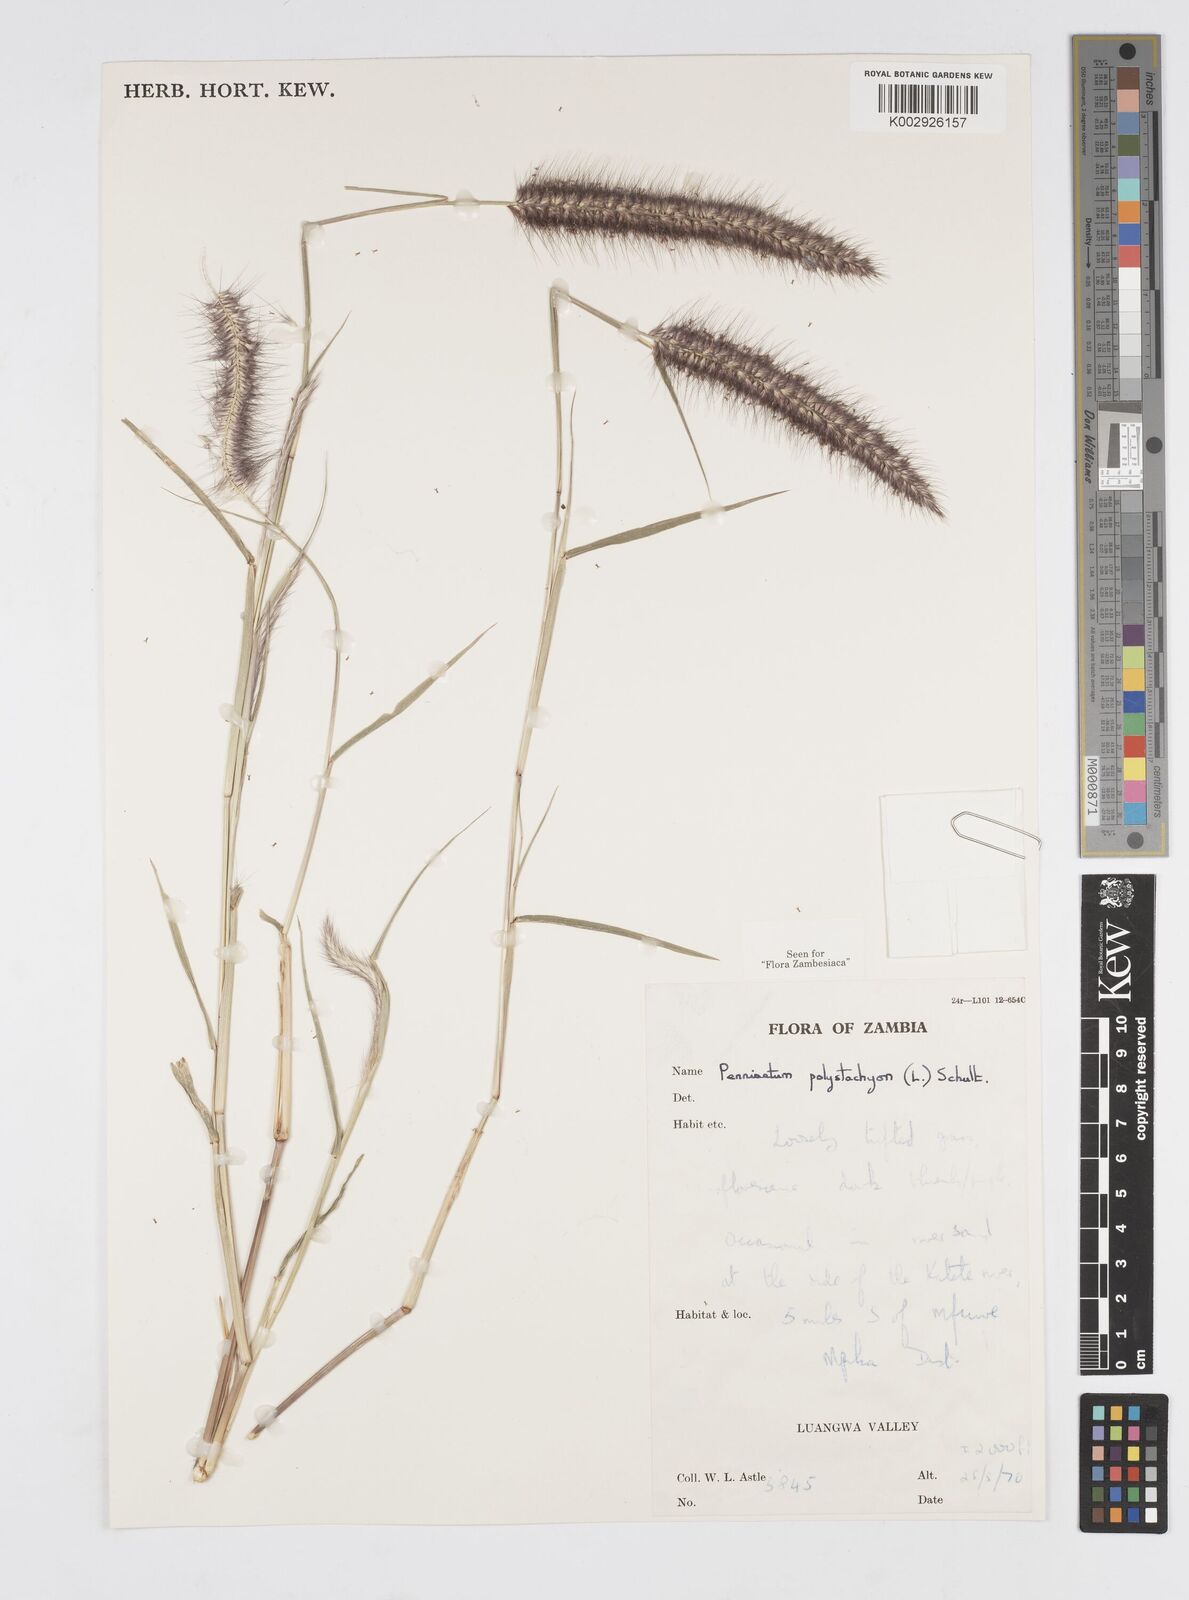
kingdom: Plantae
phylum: Tracheophyta
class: Liliopsida
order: Poales
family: Poaceae
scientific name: Poaceae
